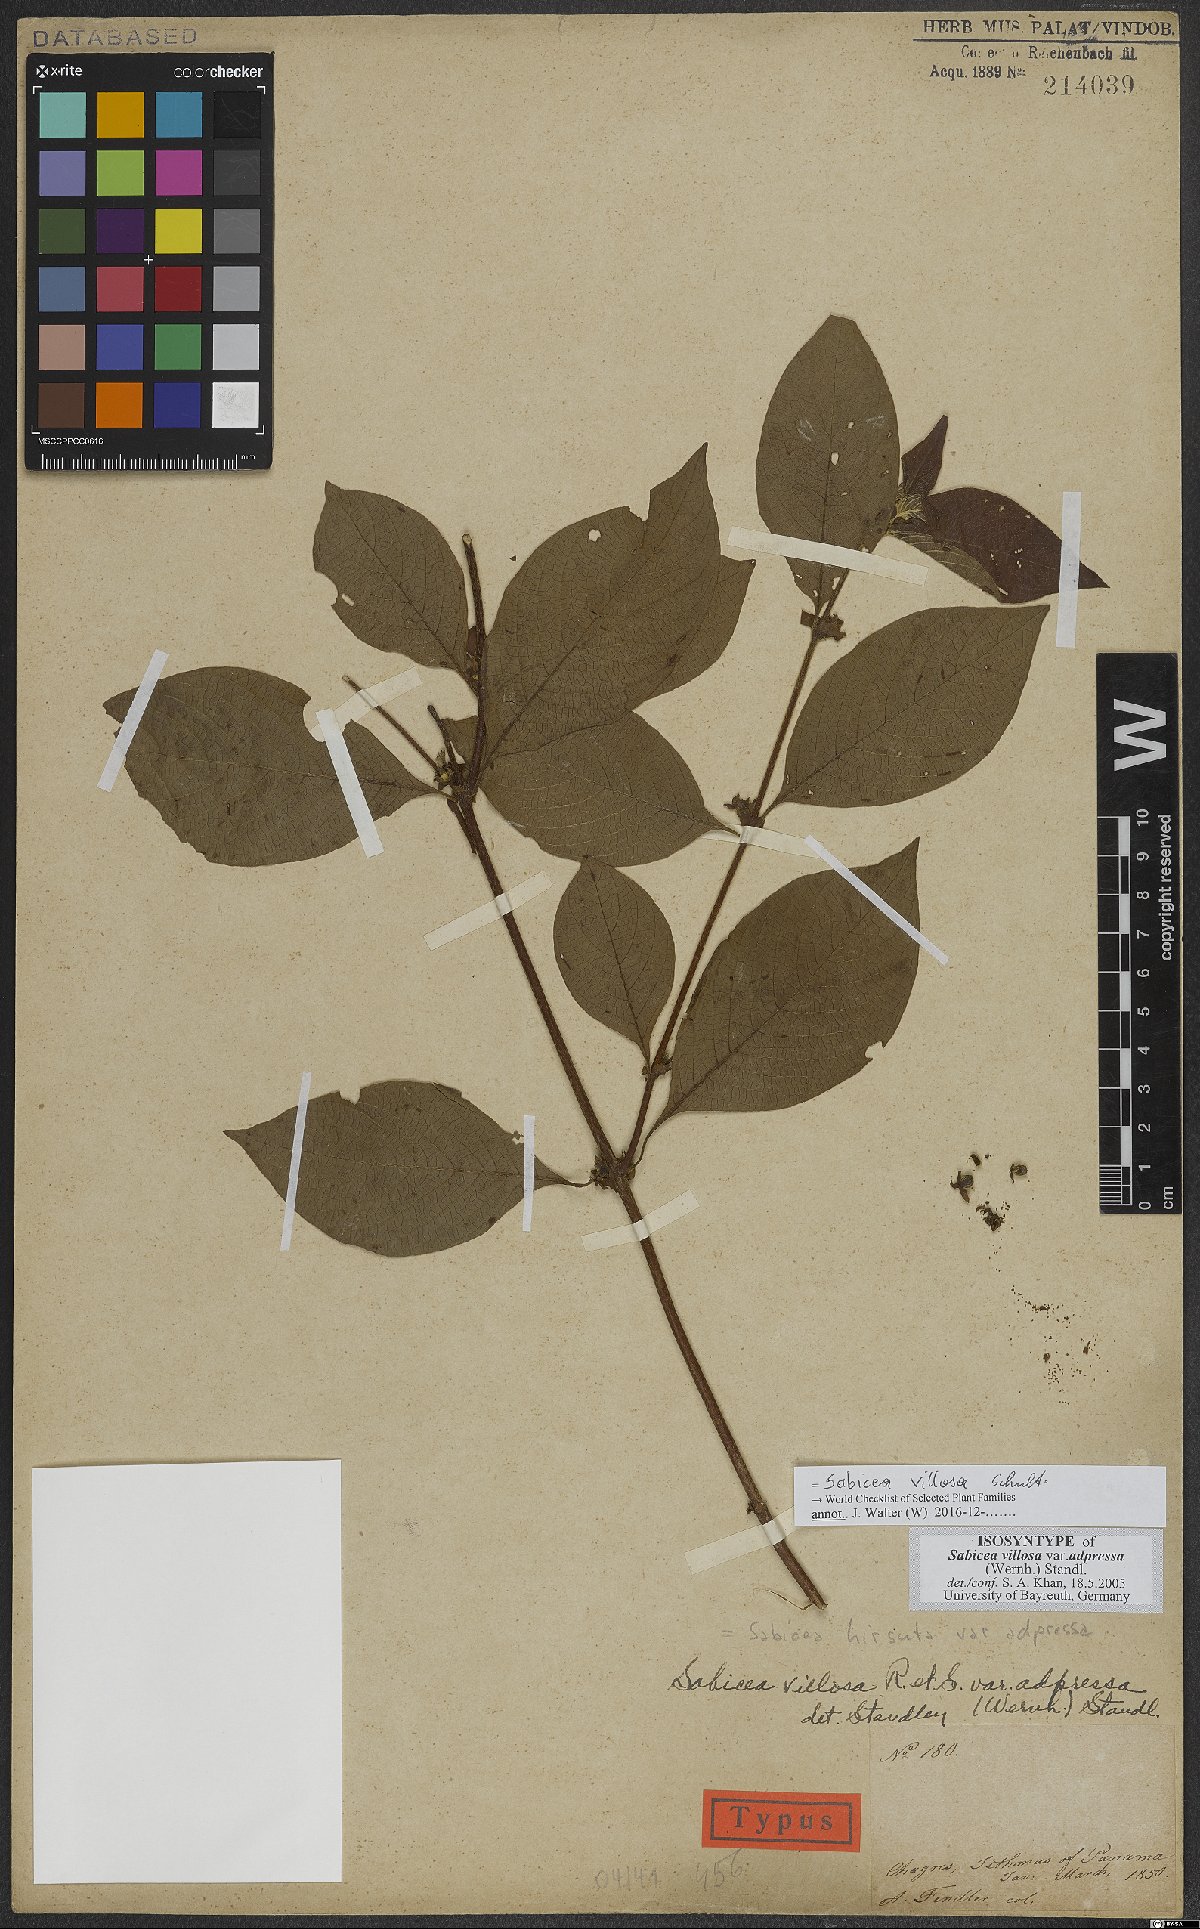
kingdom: Plantae
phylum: Tracheophyta
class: Magnoliopsida
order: Gentianales
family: Rubiaceae
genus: Sabicea
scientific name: Sabicea villosa
